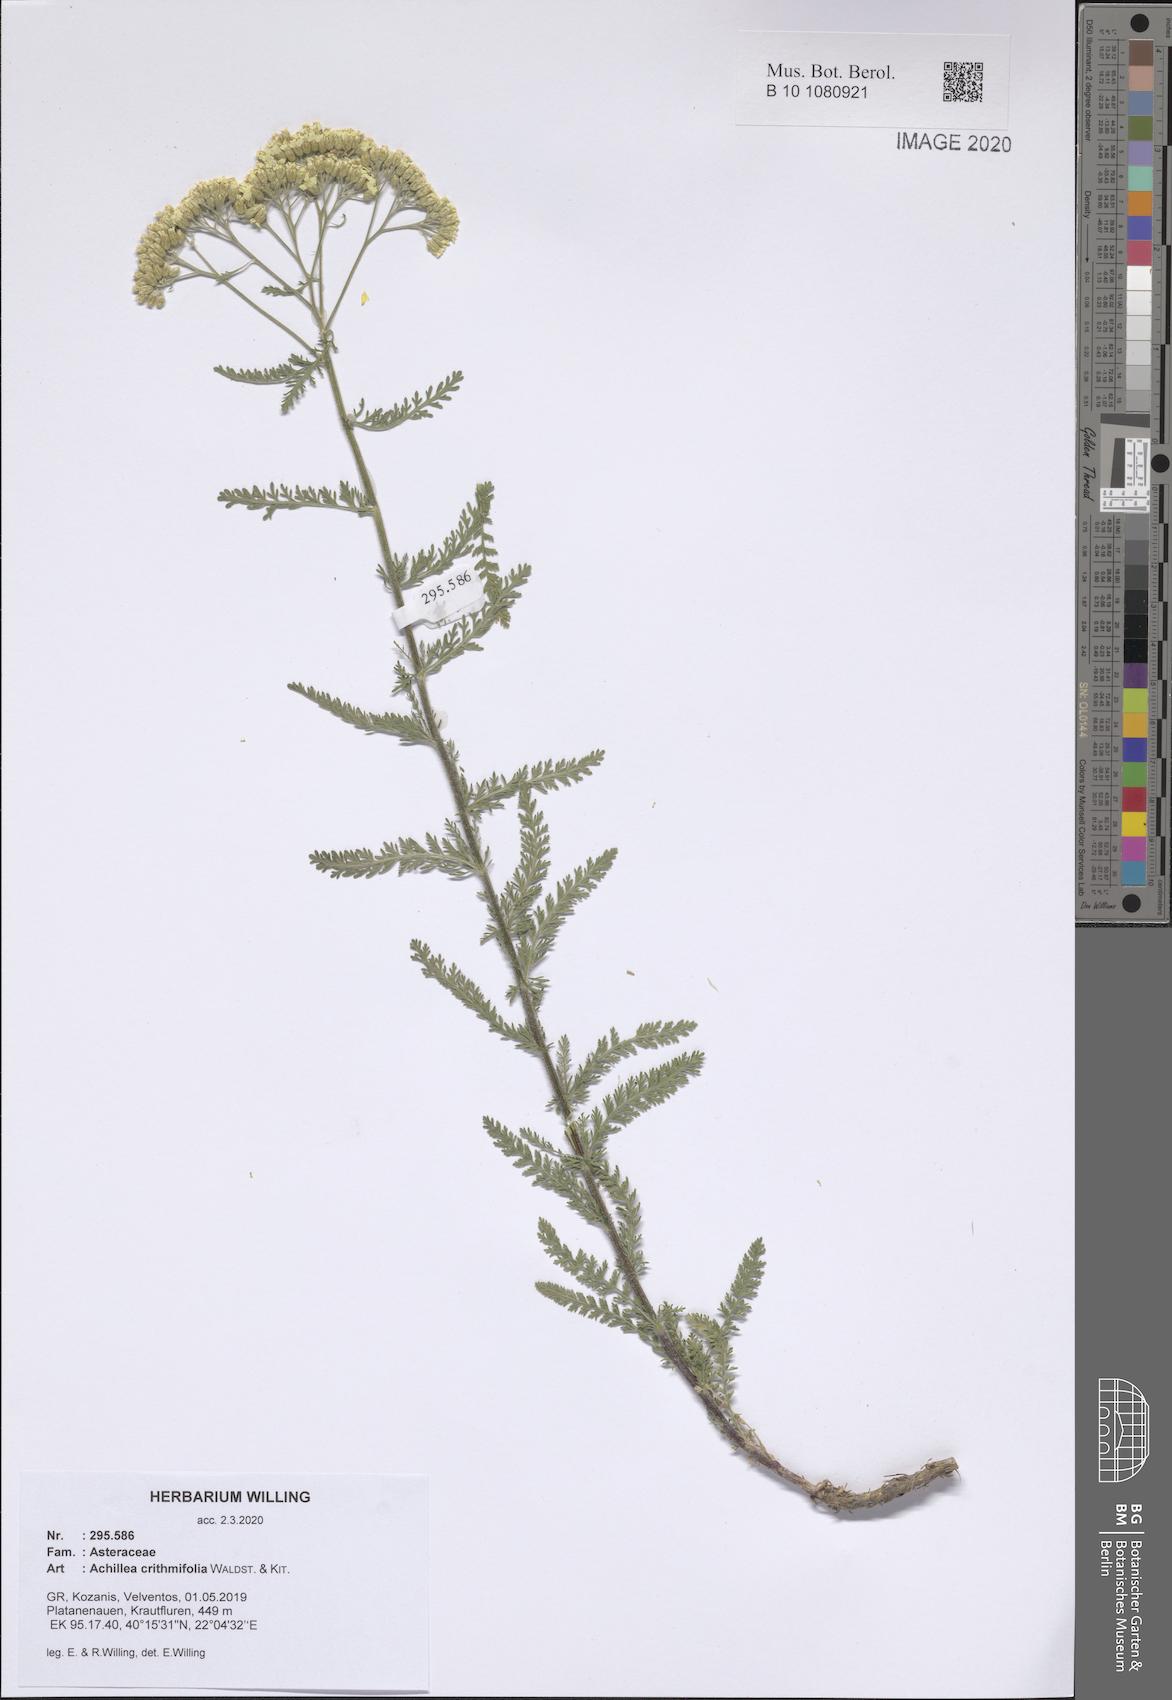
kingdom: Plantae
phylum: Tracheophyta
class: Magnoliopsida
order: Asterales
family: Asteraceae
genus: Achillea
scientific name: Achillea crithmifolia
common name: Yarrow
